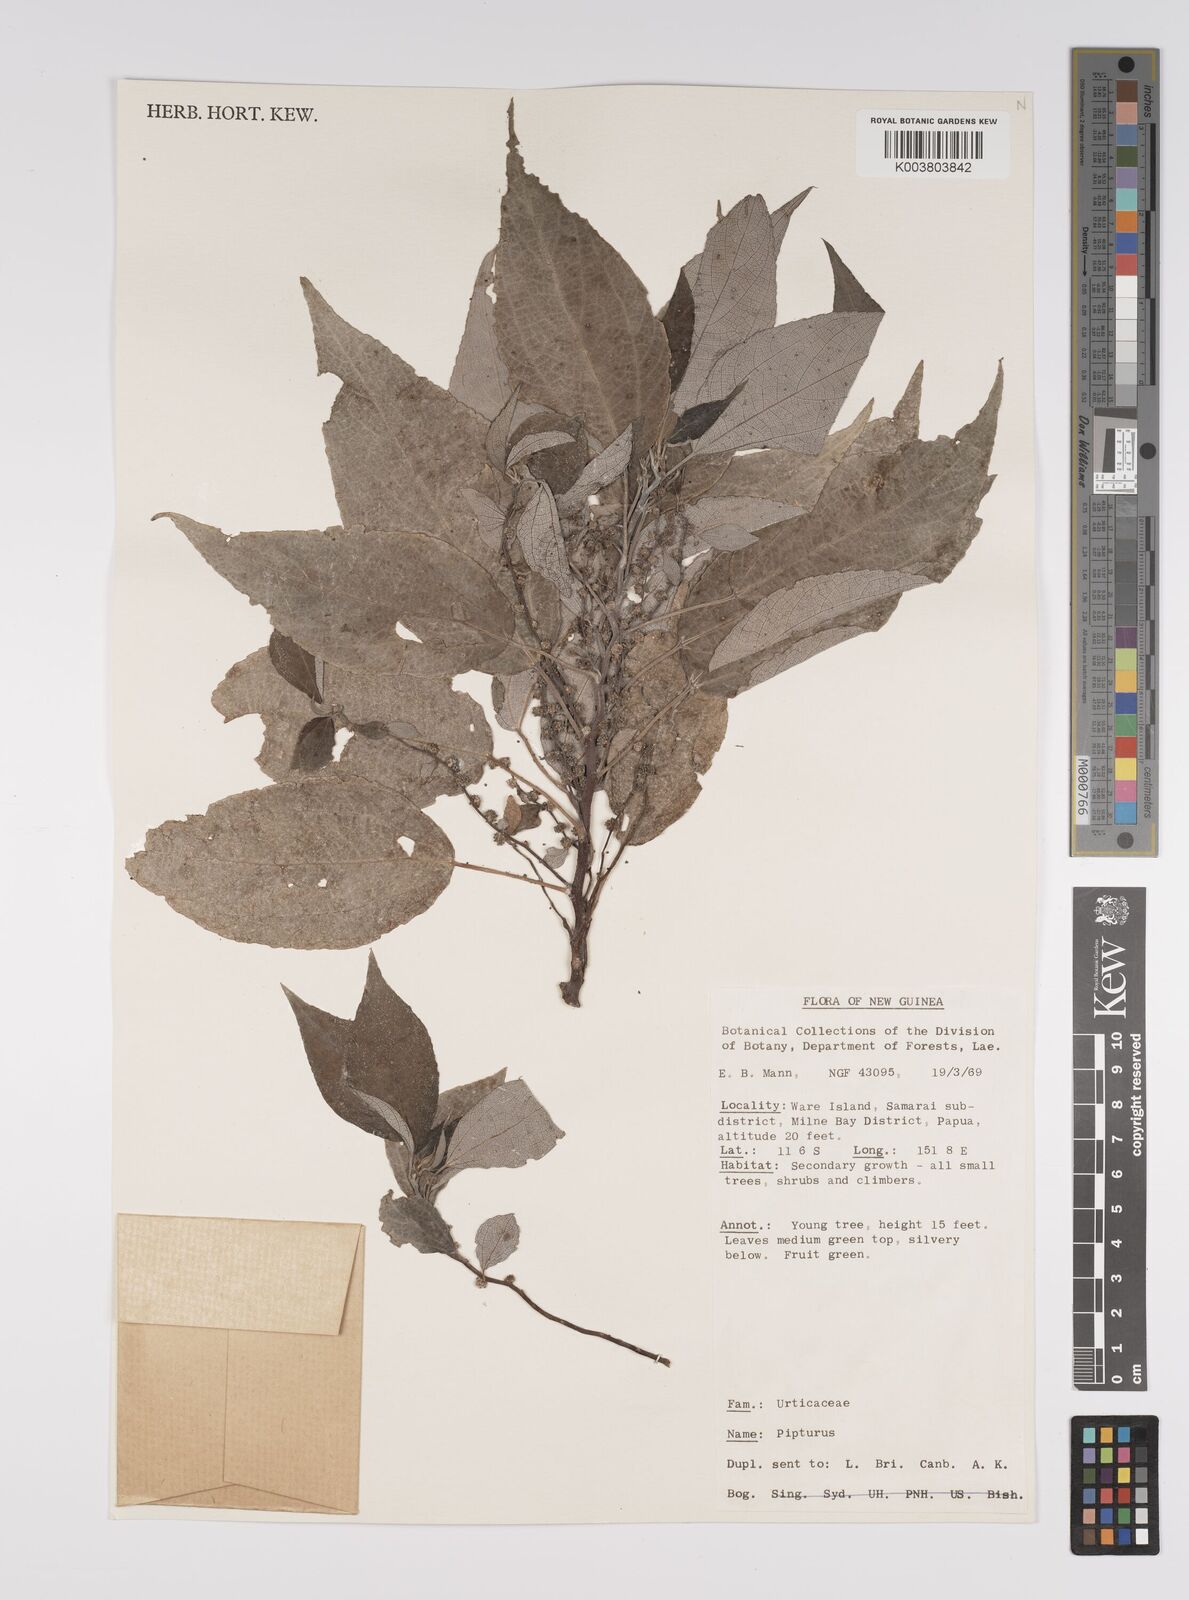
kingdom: Plantae
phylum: Tracheophyta
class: Magnoliopsida
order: Rosales
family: Urticaceae
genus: Pipturus
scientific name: Pipturus argenteus
